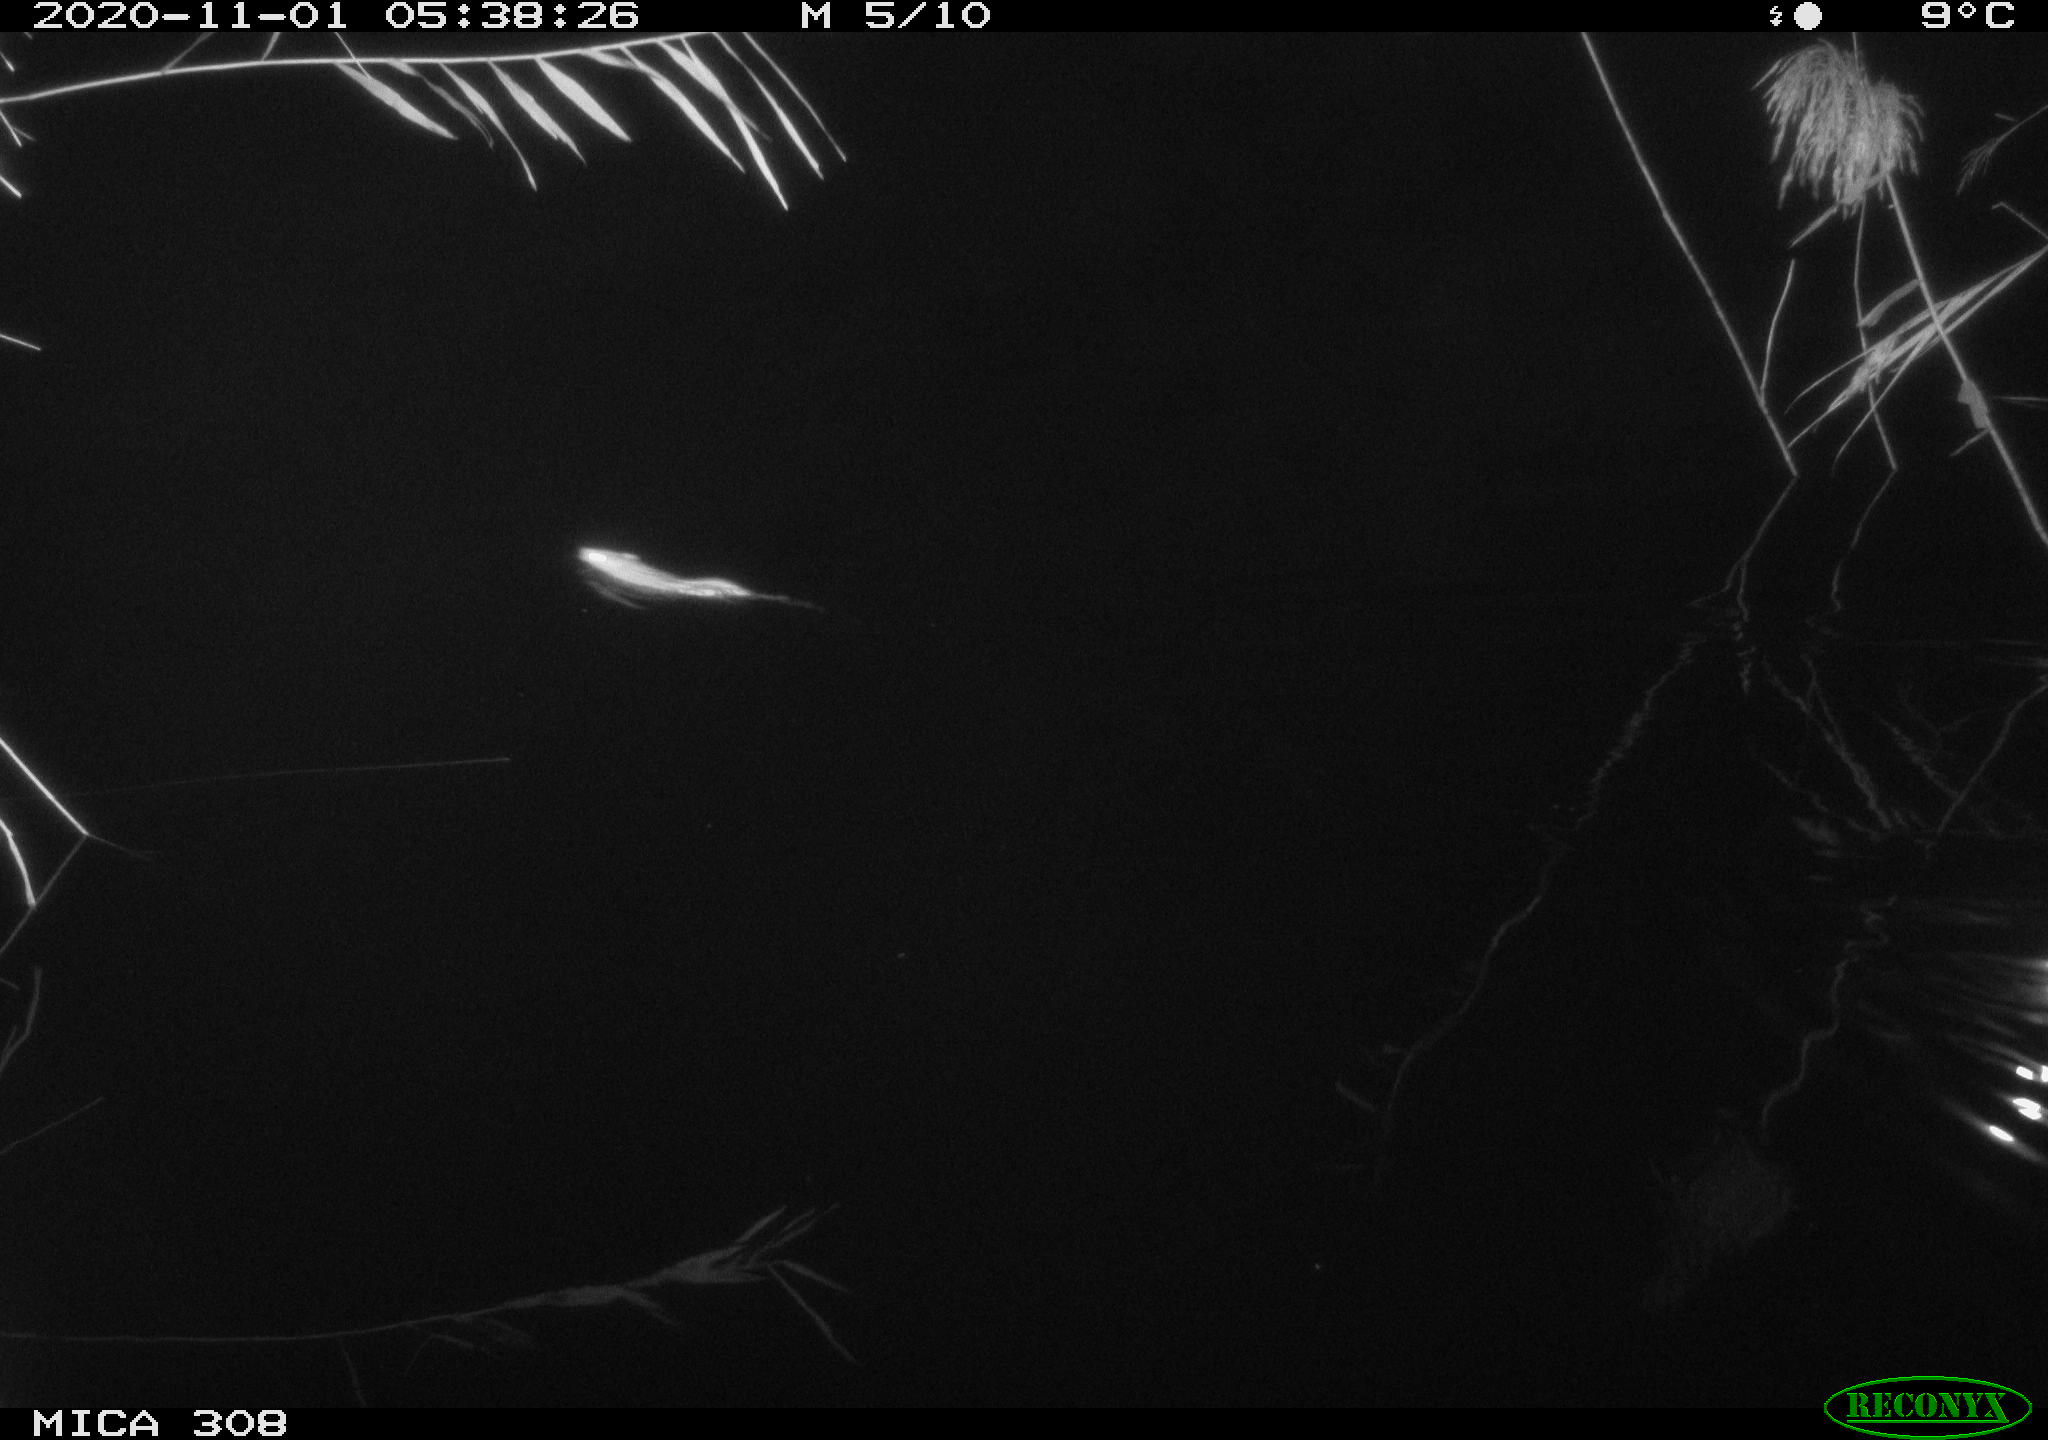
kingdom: Animalia
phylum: Chordata
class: Mammalia
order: Rodentia
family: Muridae
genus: Rattus
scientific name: Rattus norvegicus
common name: Brown rat
